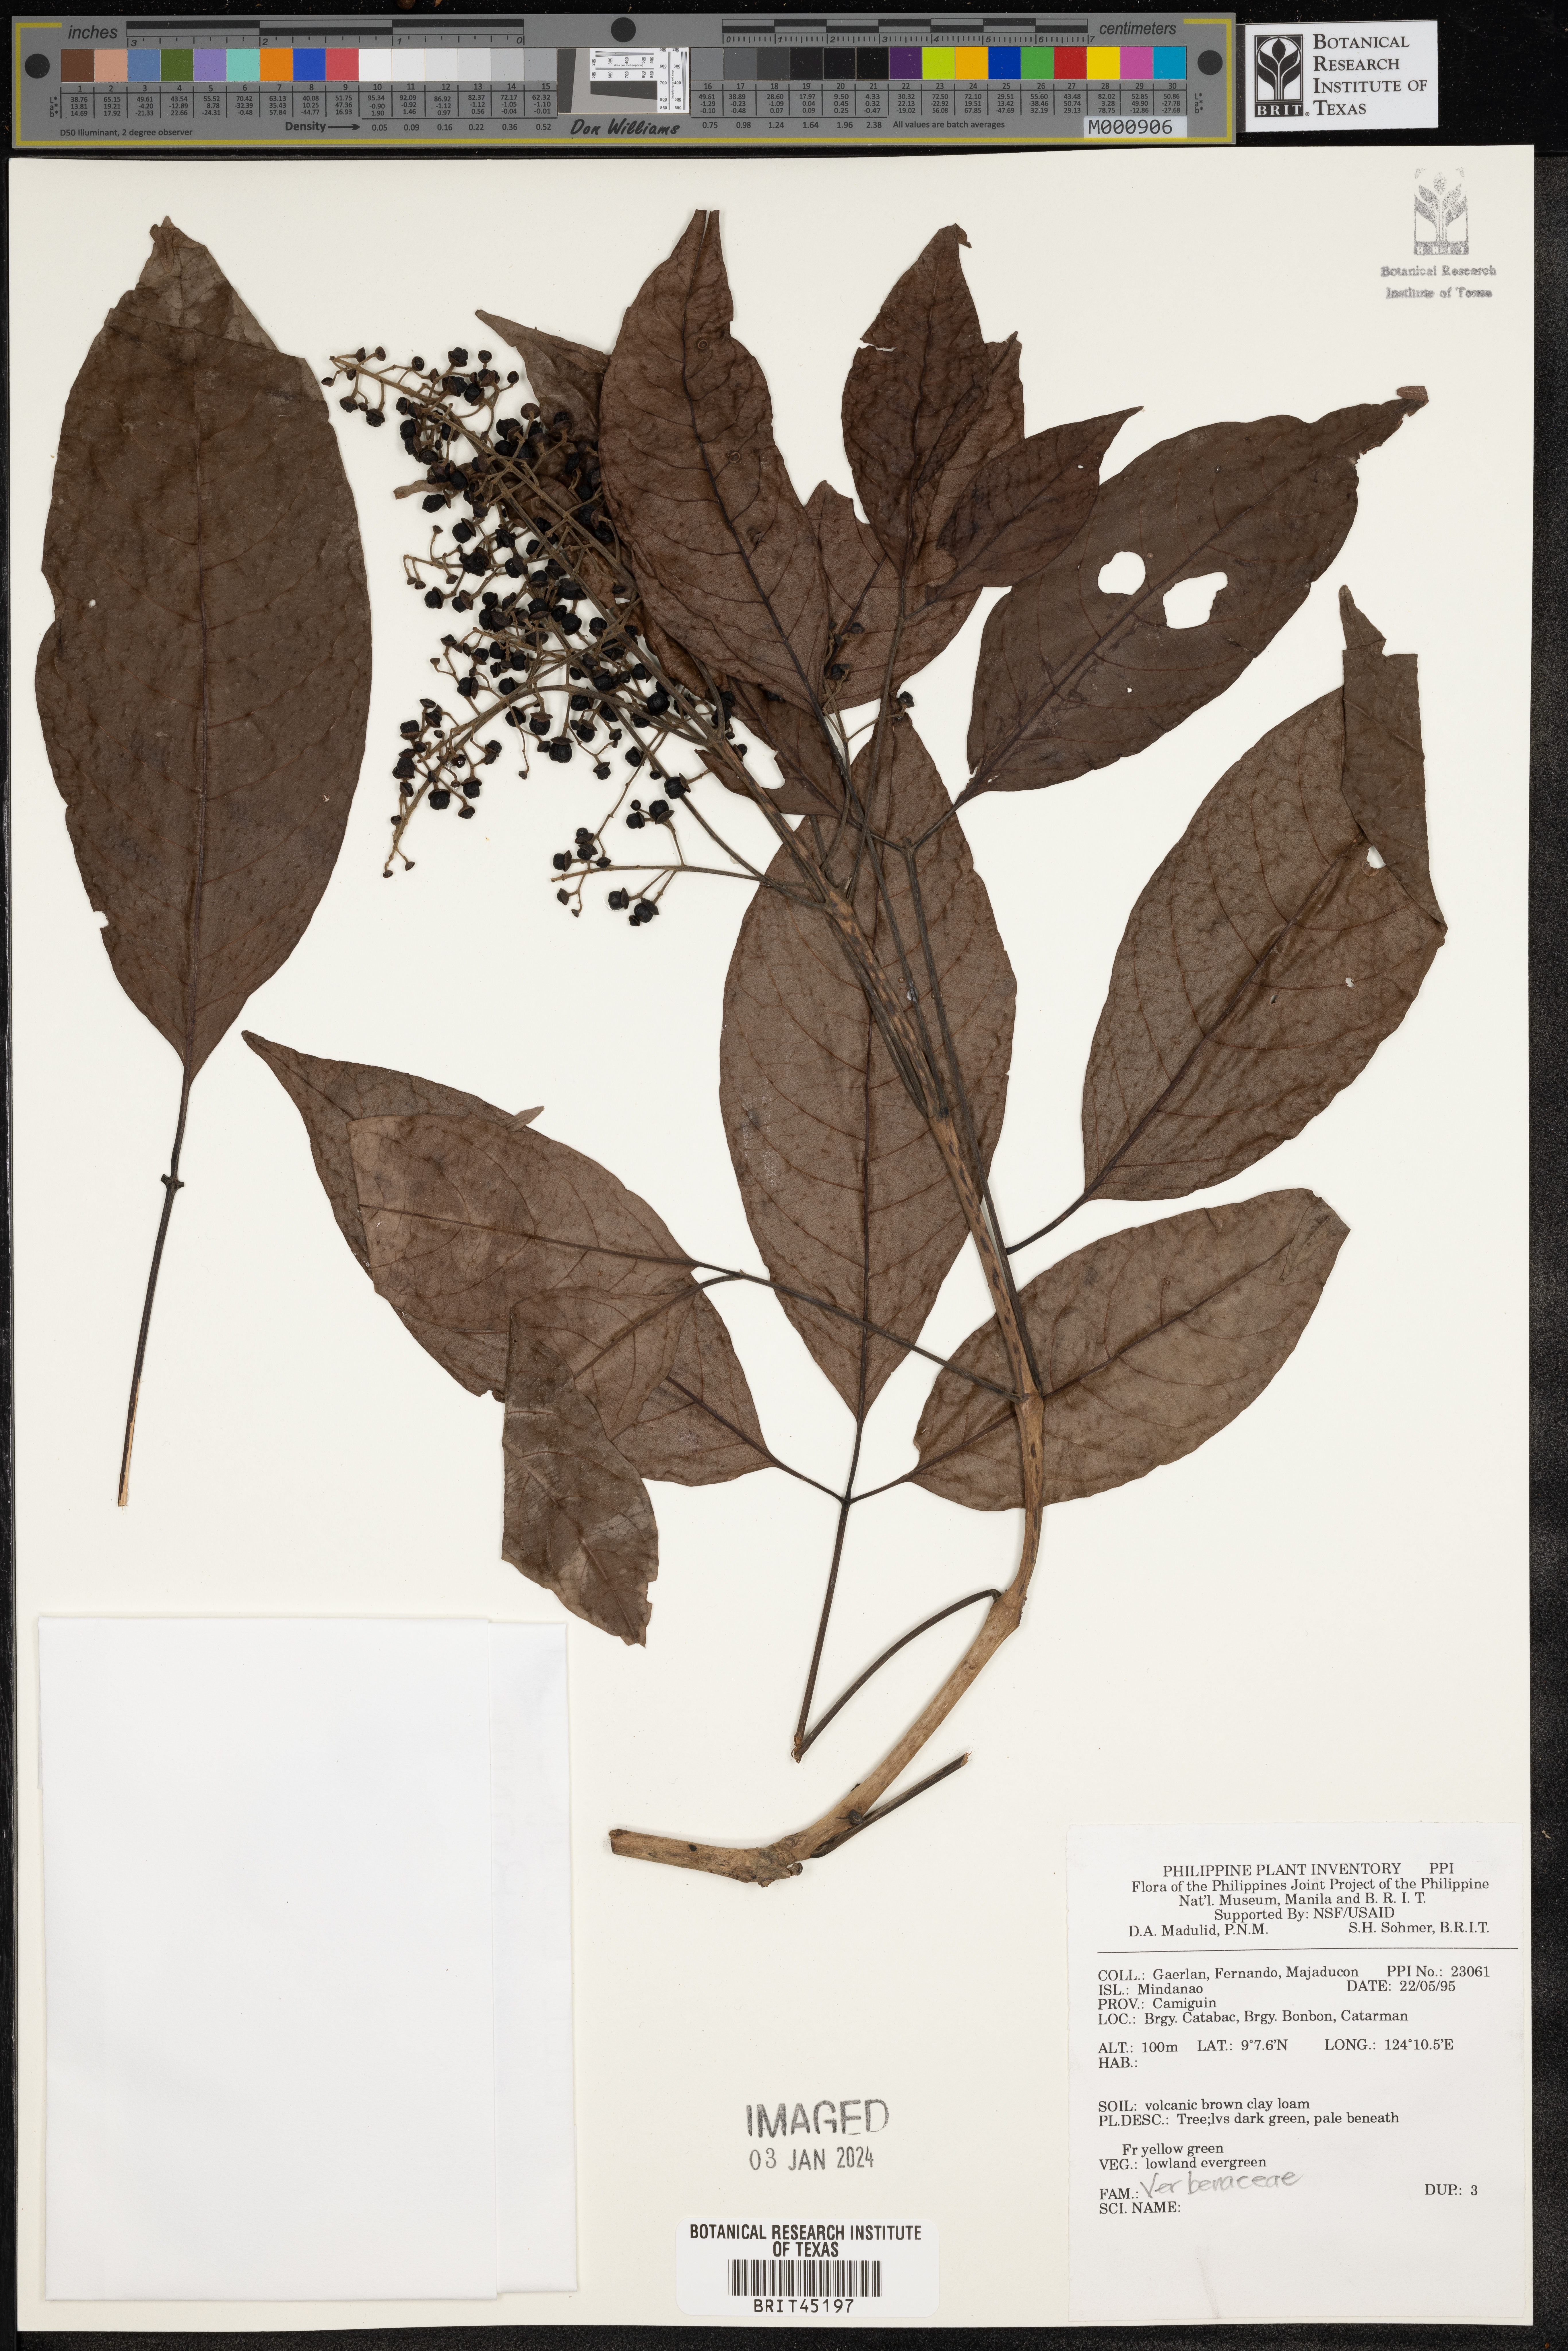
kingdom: Plantae
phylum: Tracheophyta
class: Magnoliopsida
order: Lamiales
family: Verbenaceae
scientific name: Verbenaceae
